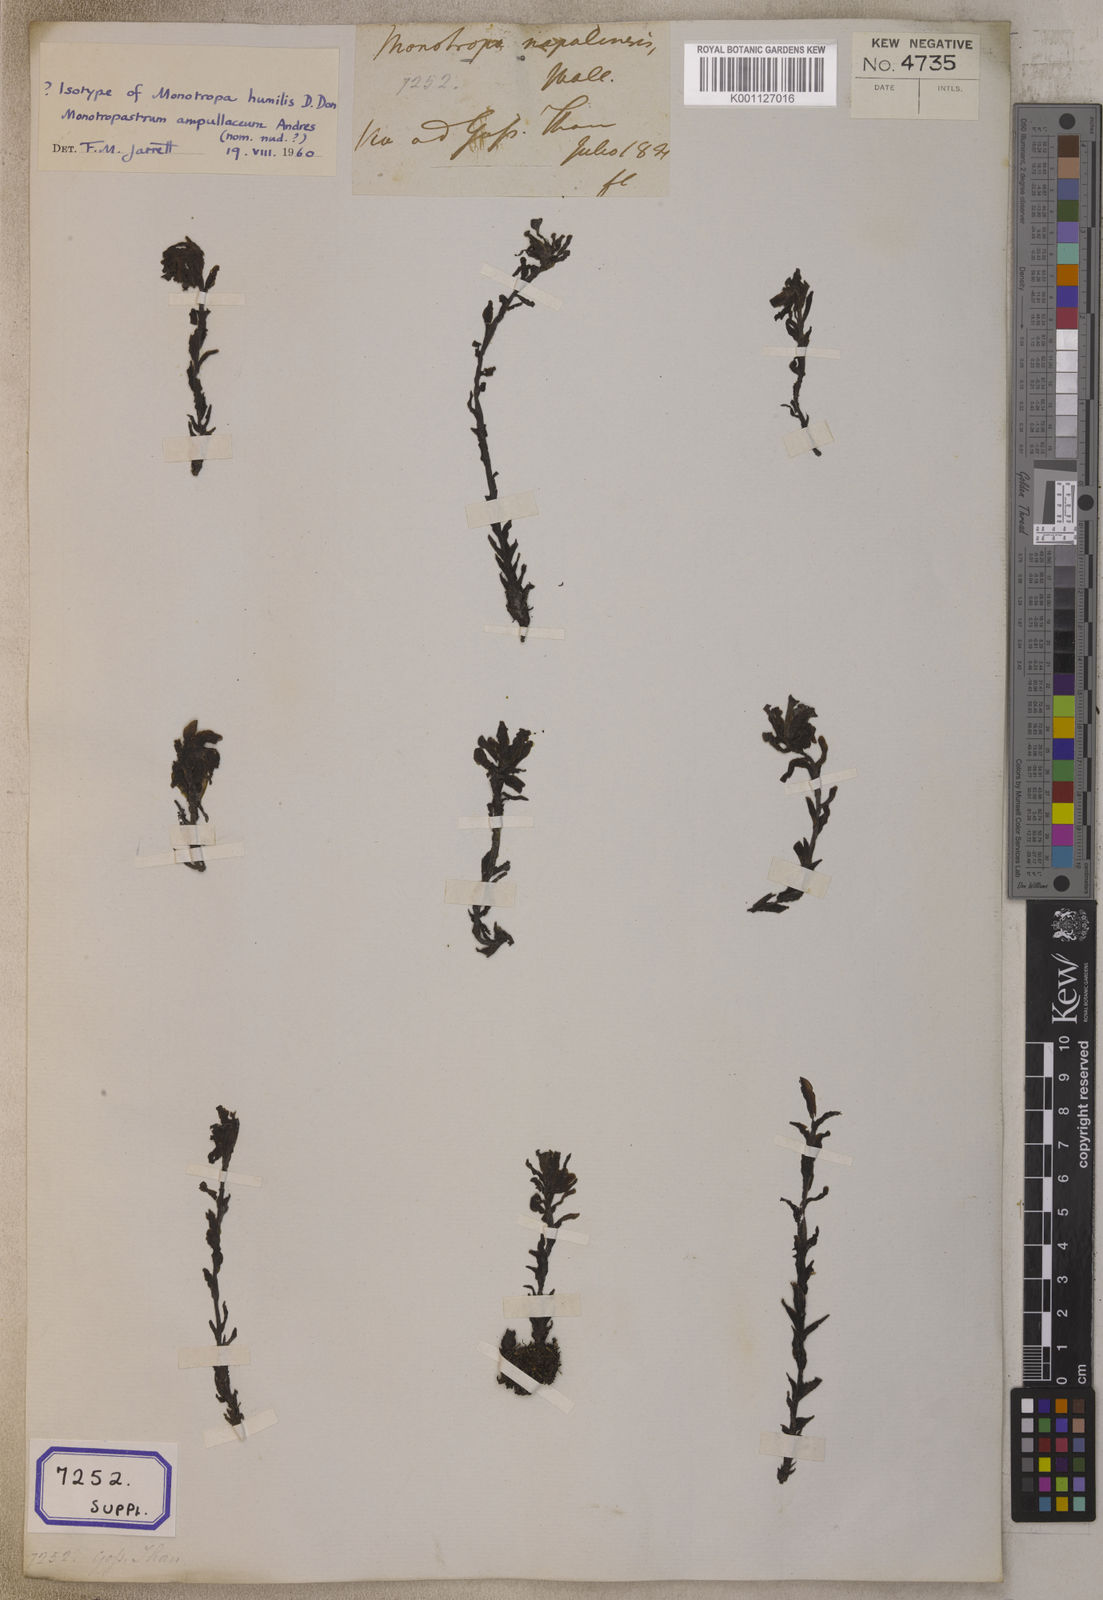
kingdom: Plantae
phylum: Tracheophyta
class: Magnoliopsida
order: Ericales
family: Ericaceae
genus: Hypopitys
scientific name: Hypopitys monotropa
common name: Yellow bird's-nest
